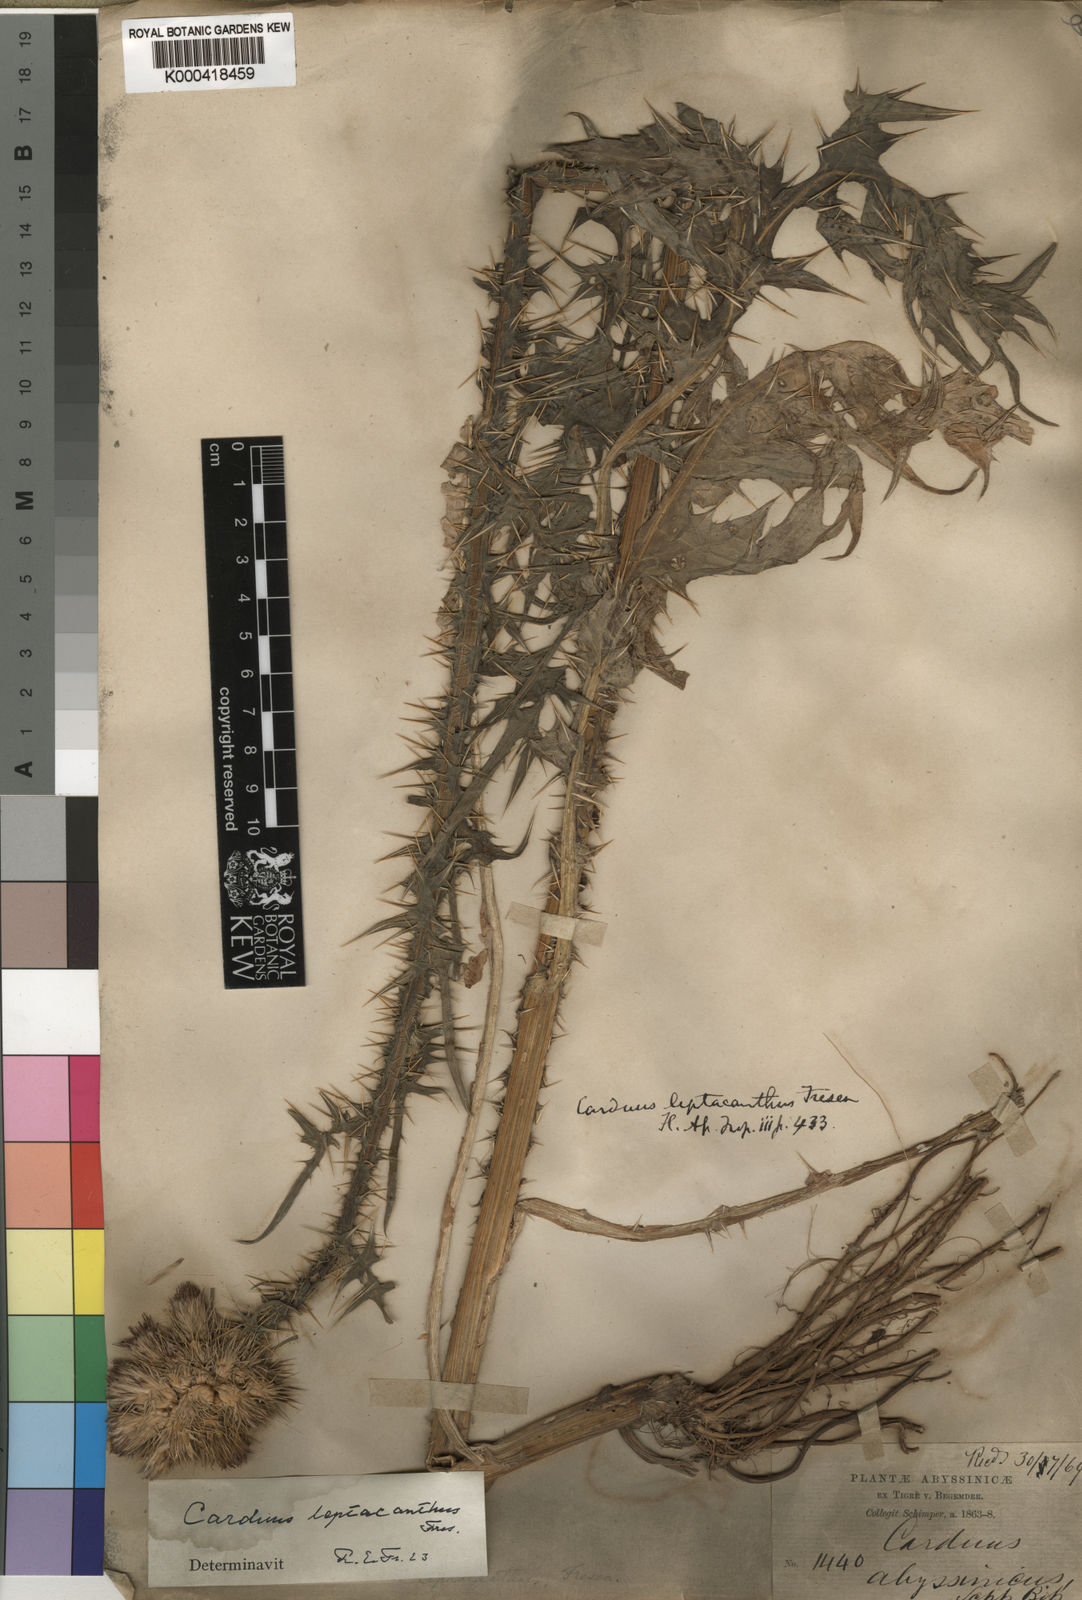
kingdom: Plantae
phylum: Tracheophyta
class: Magnoliopsida
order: Asterales
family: Asteraceae
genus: Carduus
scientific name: Carduus leptacanthus
